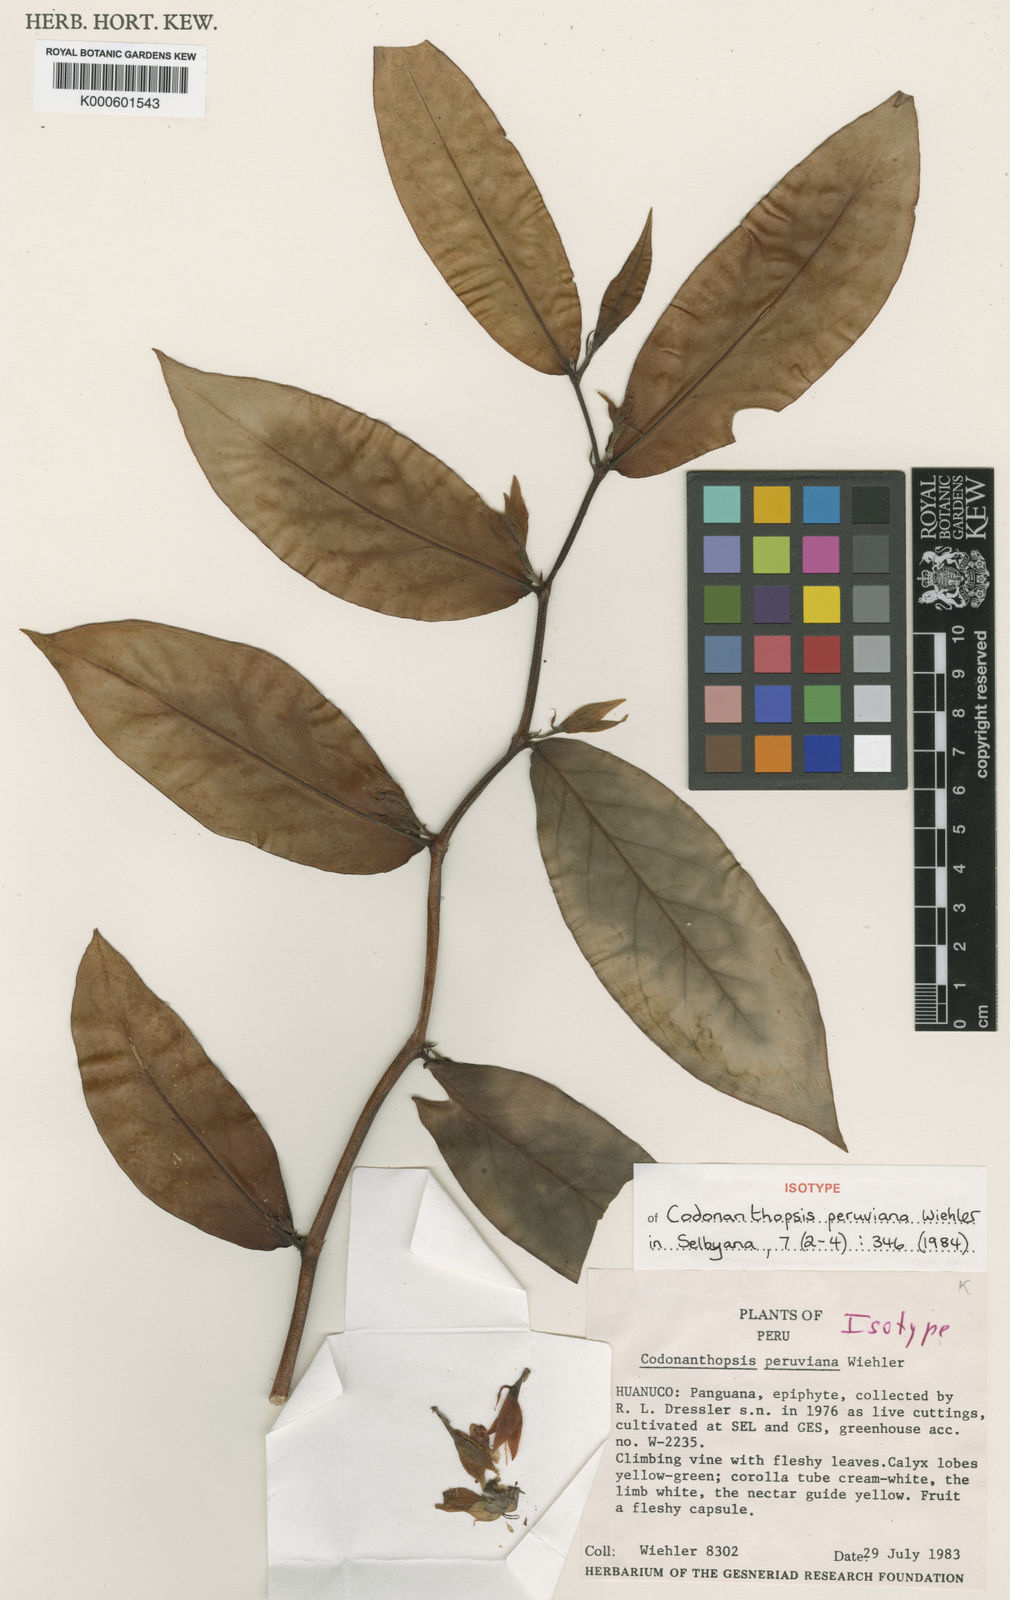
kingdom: Plantae
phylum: Tracheophyta
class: Magnoliopsida
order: Lamiales
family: Gesneriaceae
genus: Codonanthopsis
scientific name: Codonanthopsis dissimulata
